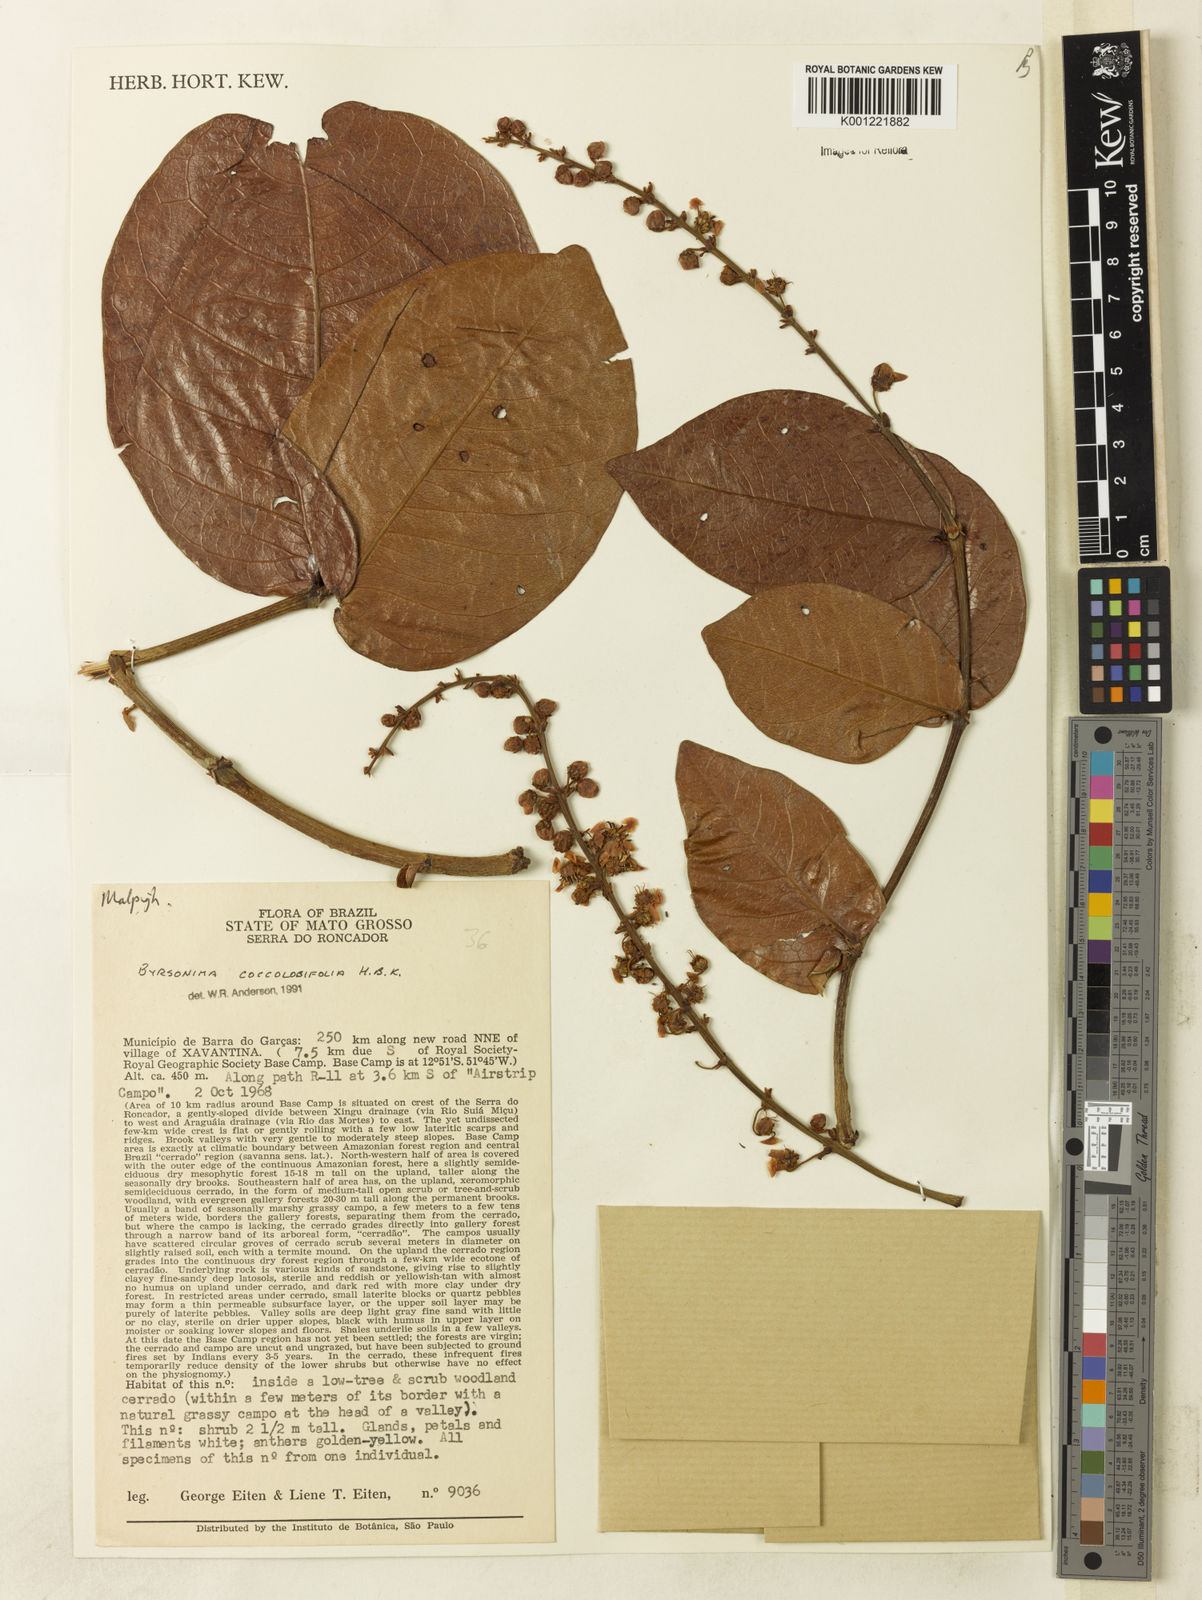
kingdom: Plantae
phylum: Tracheophyta
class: Magnoliopsida
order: Malpighiales
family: Malpighiaceae
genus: Byrsonima
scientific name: Byrsonima coccolobifolia
